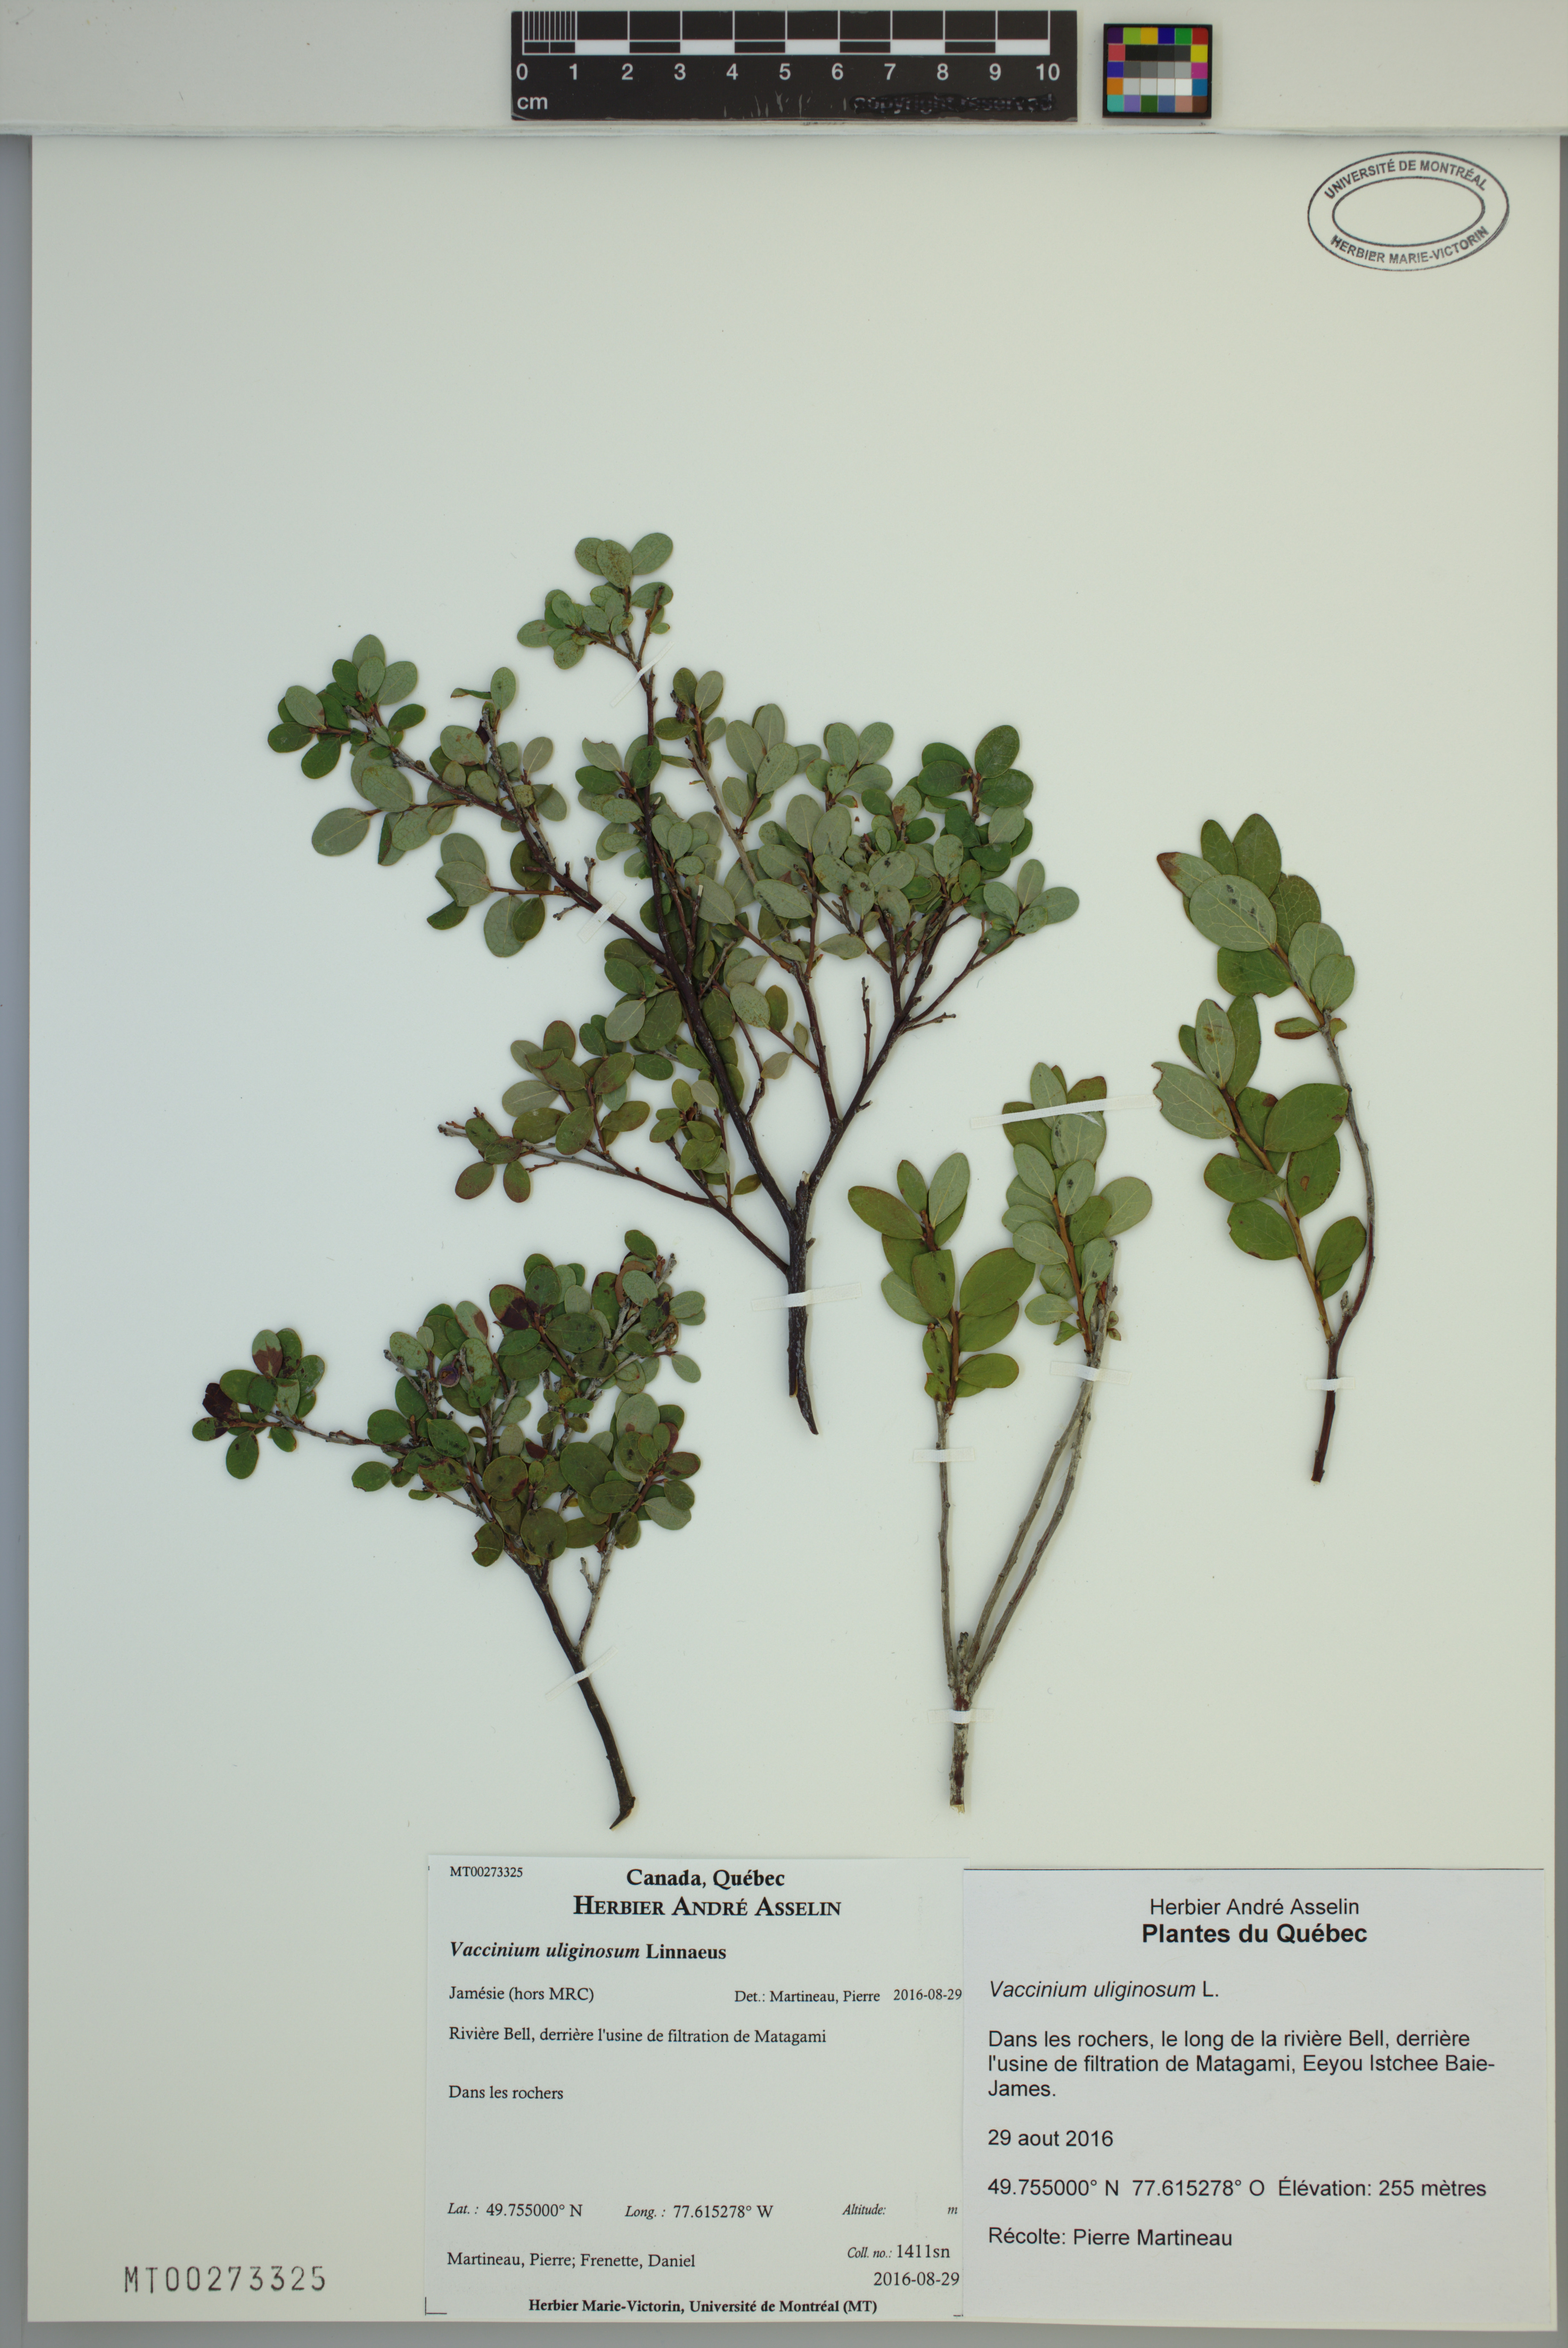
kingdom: Plantae
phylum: Tracheophyta
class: Magnoliopsida
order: Ericales
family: Ericaceae
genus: Vaccinium
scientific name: Vaccinium uliginosum
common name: Bog bilberry
